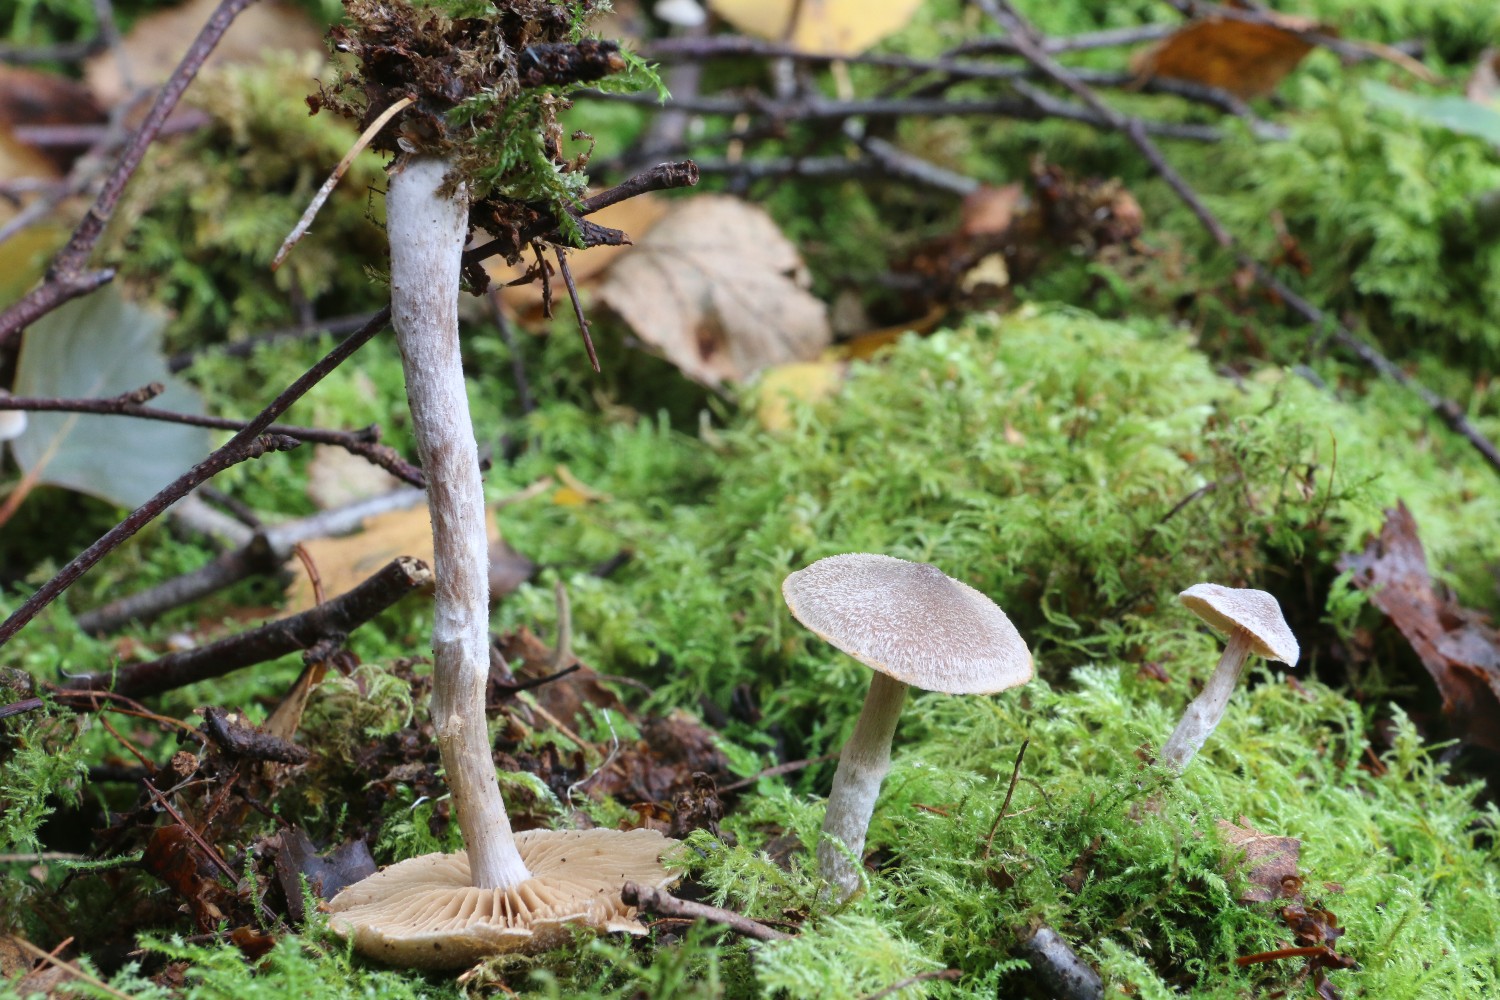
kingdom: Fungi
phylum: Basidiomycota
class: Agaricomycetes
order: Agaricales
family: Cortinariaceae
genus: Cortinarius
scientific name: Cortinarius hemitrichus
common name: hvidfnugget slørhat
